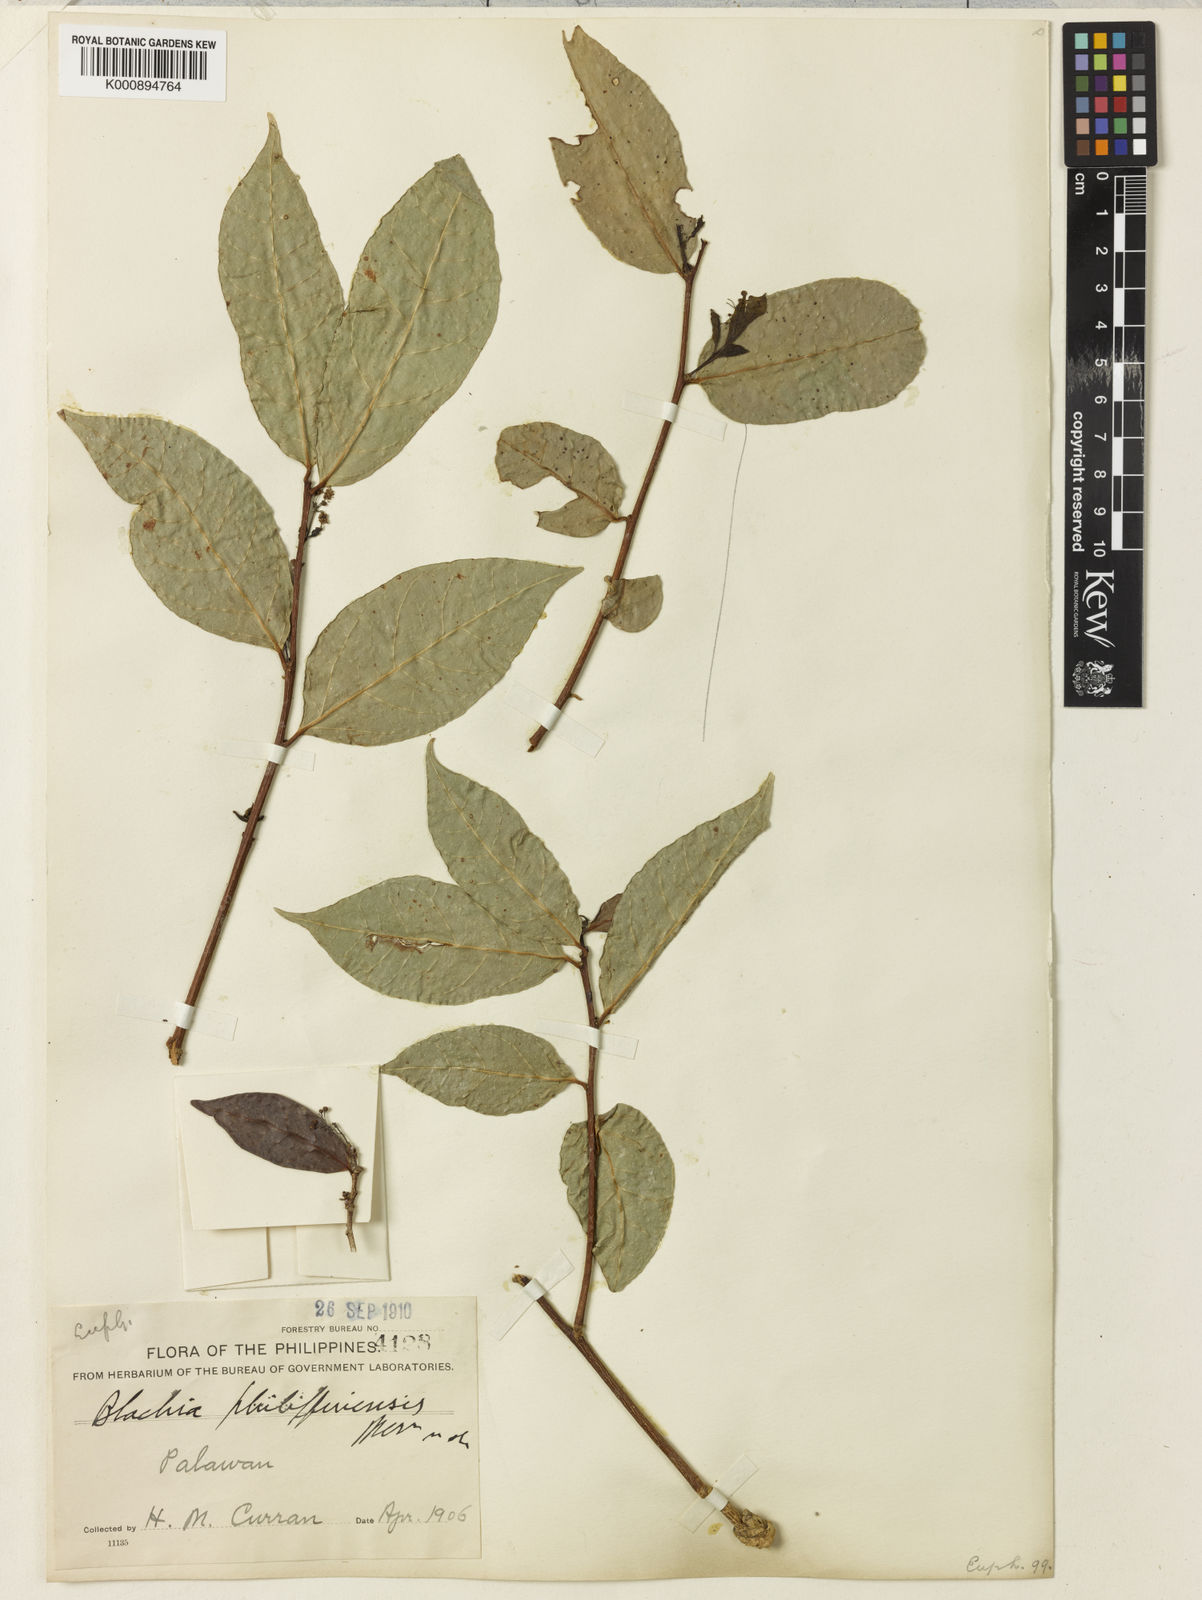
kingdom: Plantae
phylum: Tracheophyta
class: Magnoliopsida
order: Malpighiales
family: Euphorbiaceae
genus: Blachia
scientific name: Blachia philippinensis
